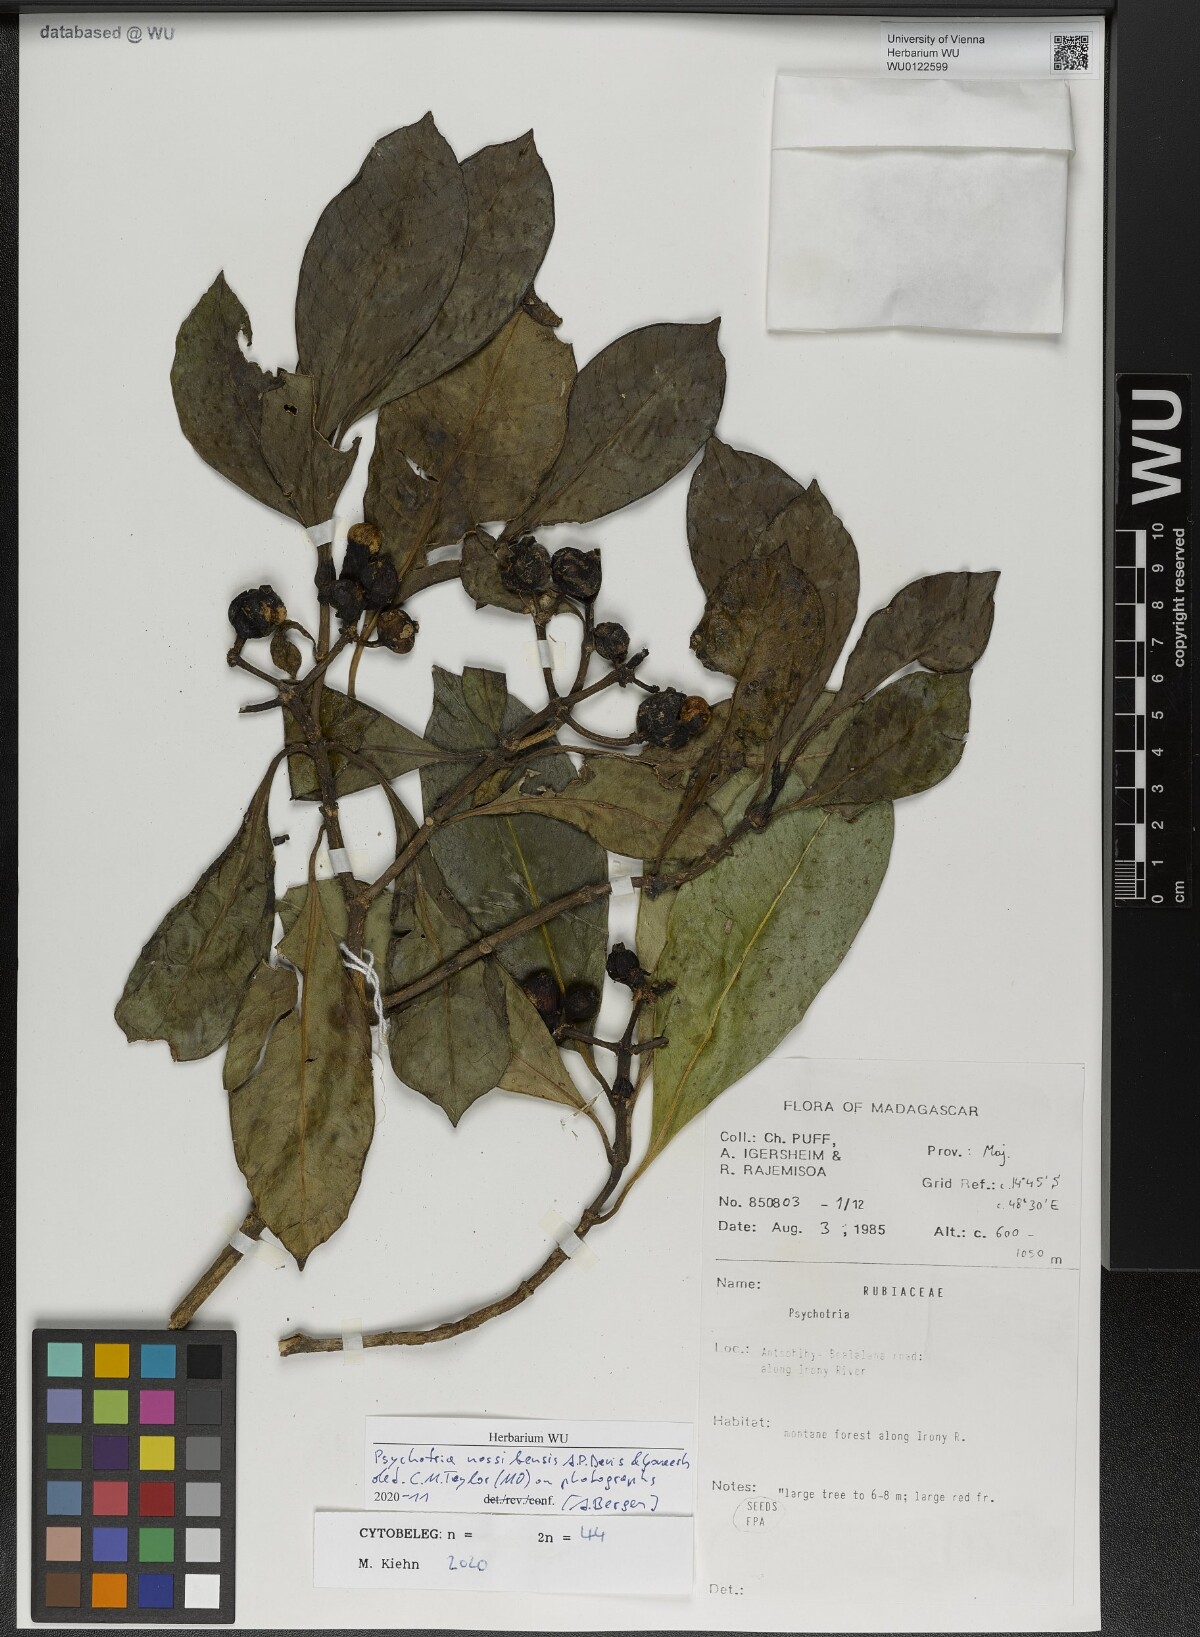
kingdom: Plantae
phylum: Tracheophyta
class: Magnoliopsida
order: Gentianales
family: Rubiaceae
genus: Psychotria
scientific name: Psychotria nossibensis
